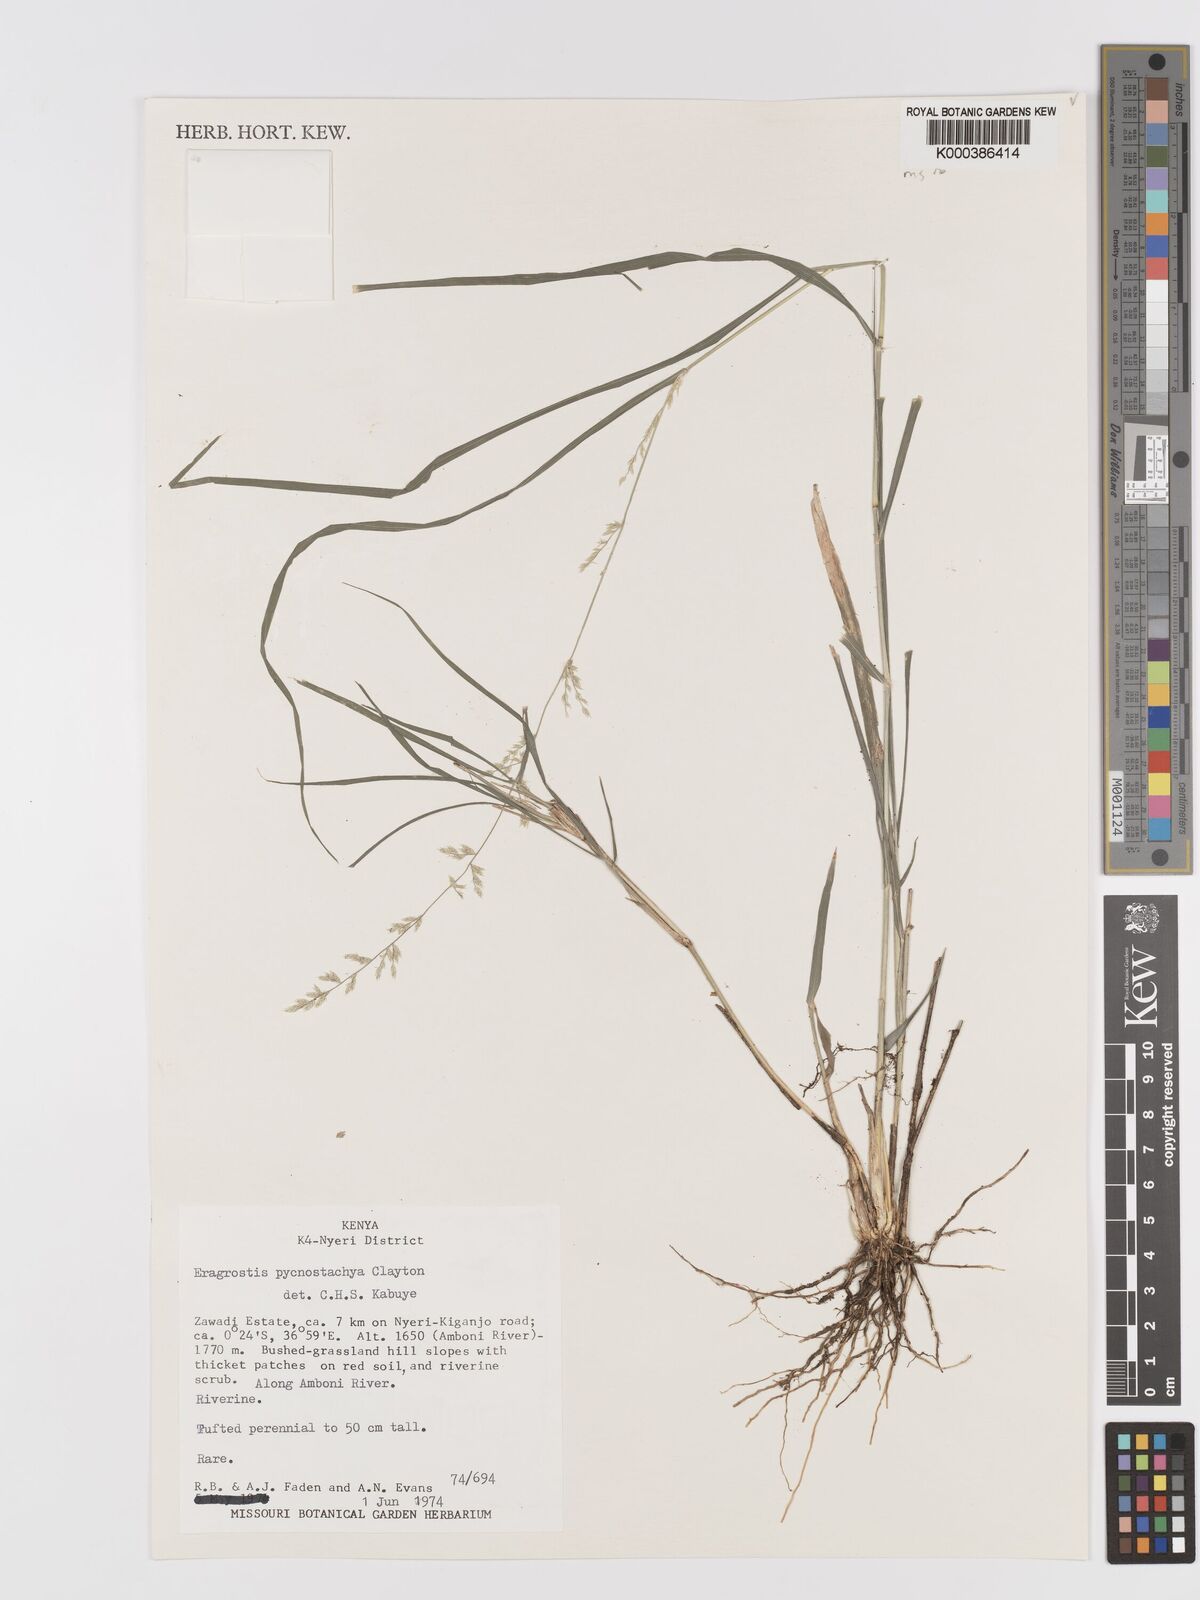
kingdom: Plantae
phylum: Tracheophyta
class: Liliopsida
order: Poales
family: Poaceae
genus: Eragrostis
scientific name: Eragrostis pycnostachys
